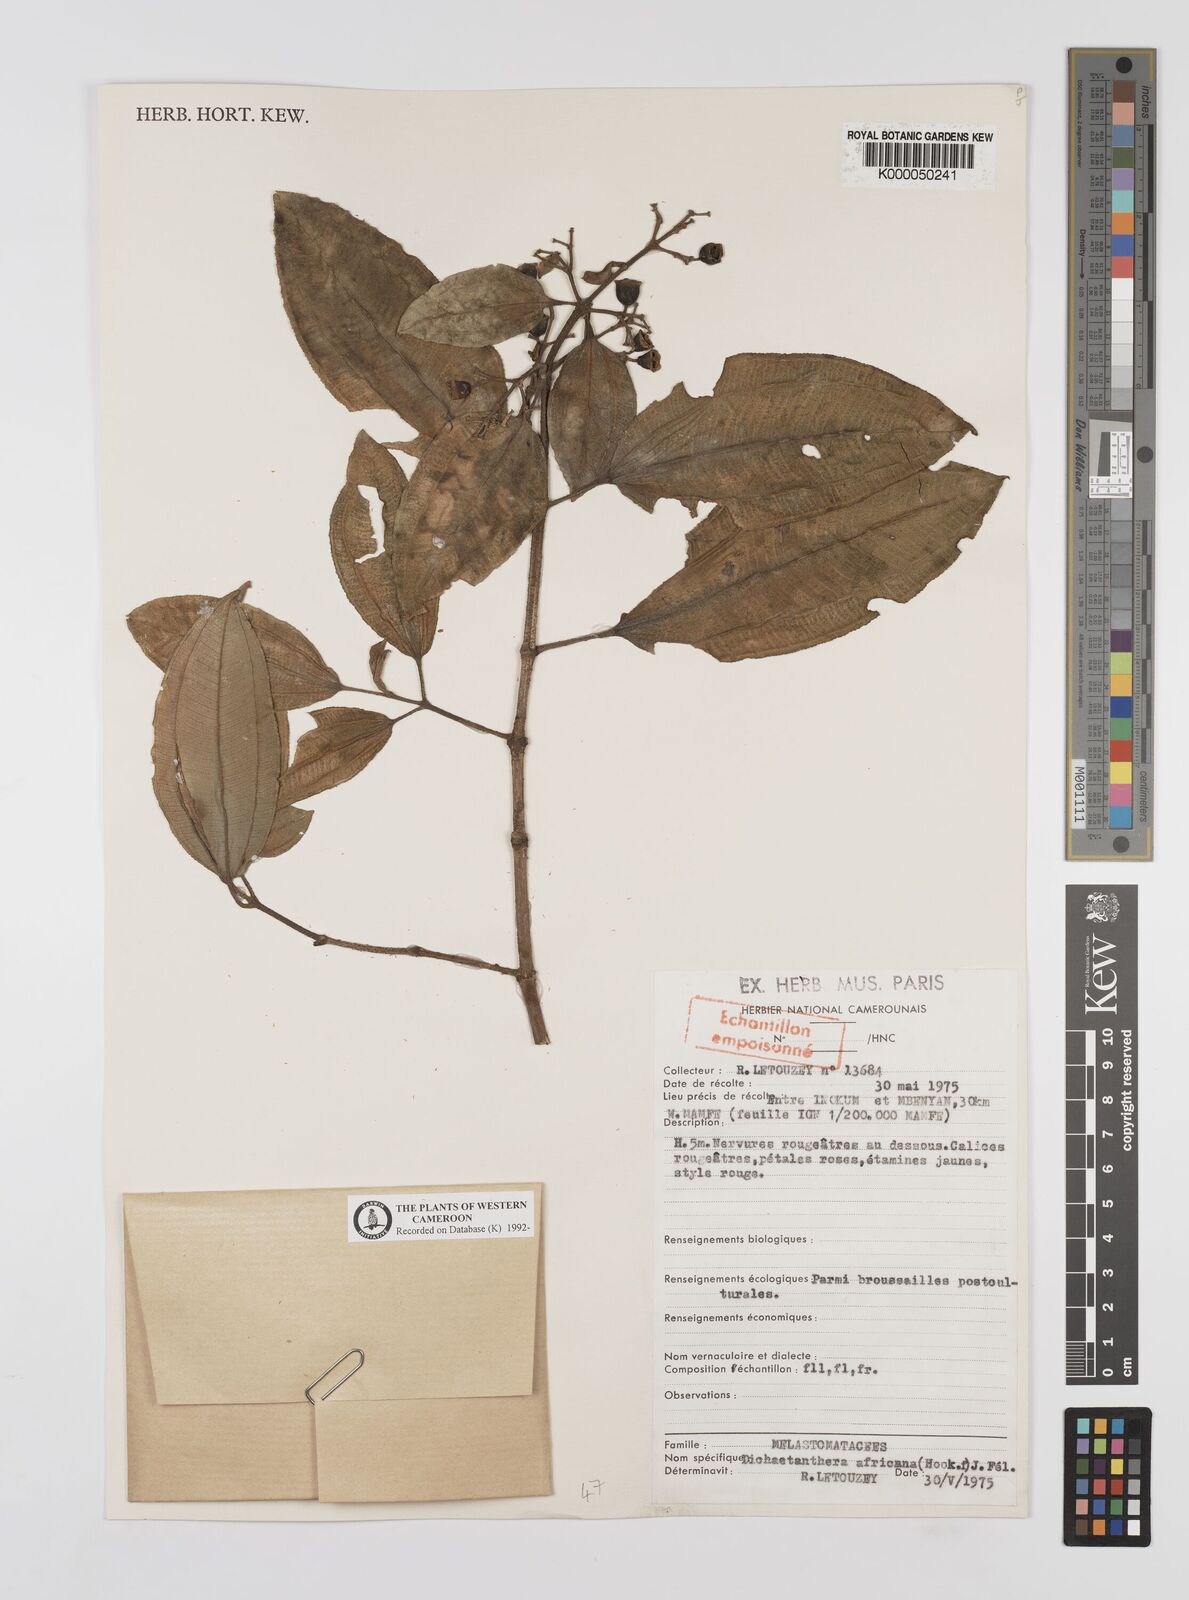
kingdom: Plantae
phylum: Tracheophyta
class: Magnoliopsida
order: Myrtales
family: Melastomataceae
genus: Dichaetanthera
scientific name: Dichaetanthera
